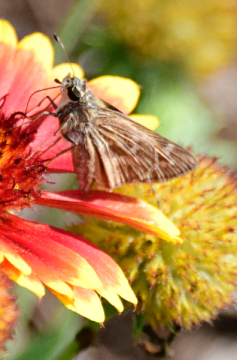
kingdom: Animalia
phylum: Arthropoda
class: Insecta
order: Lepidoptera
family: Hesperiidae
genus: Atalopedes
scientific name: Atalopedes campestris
